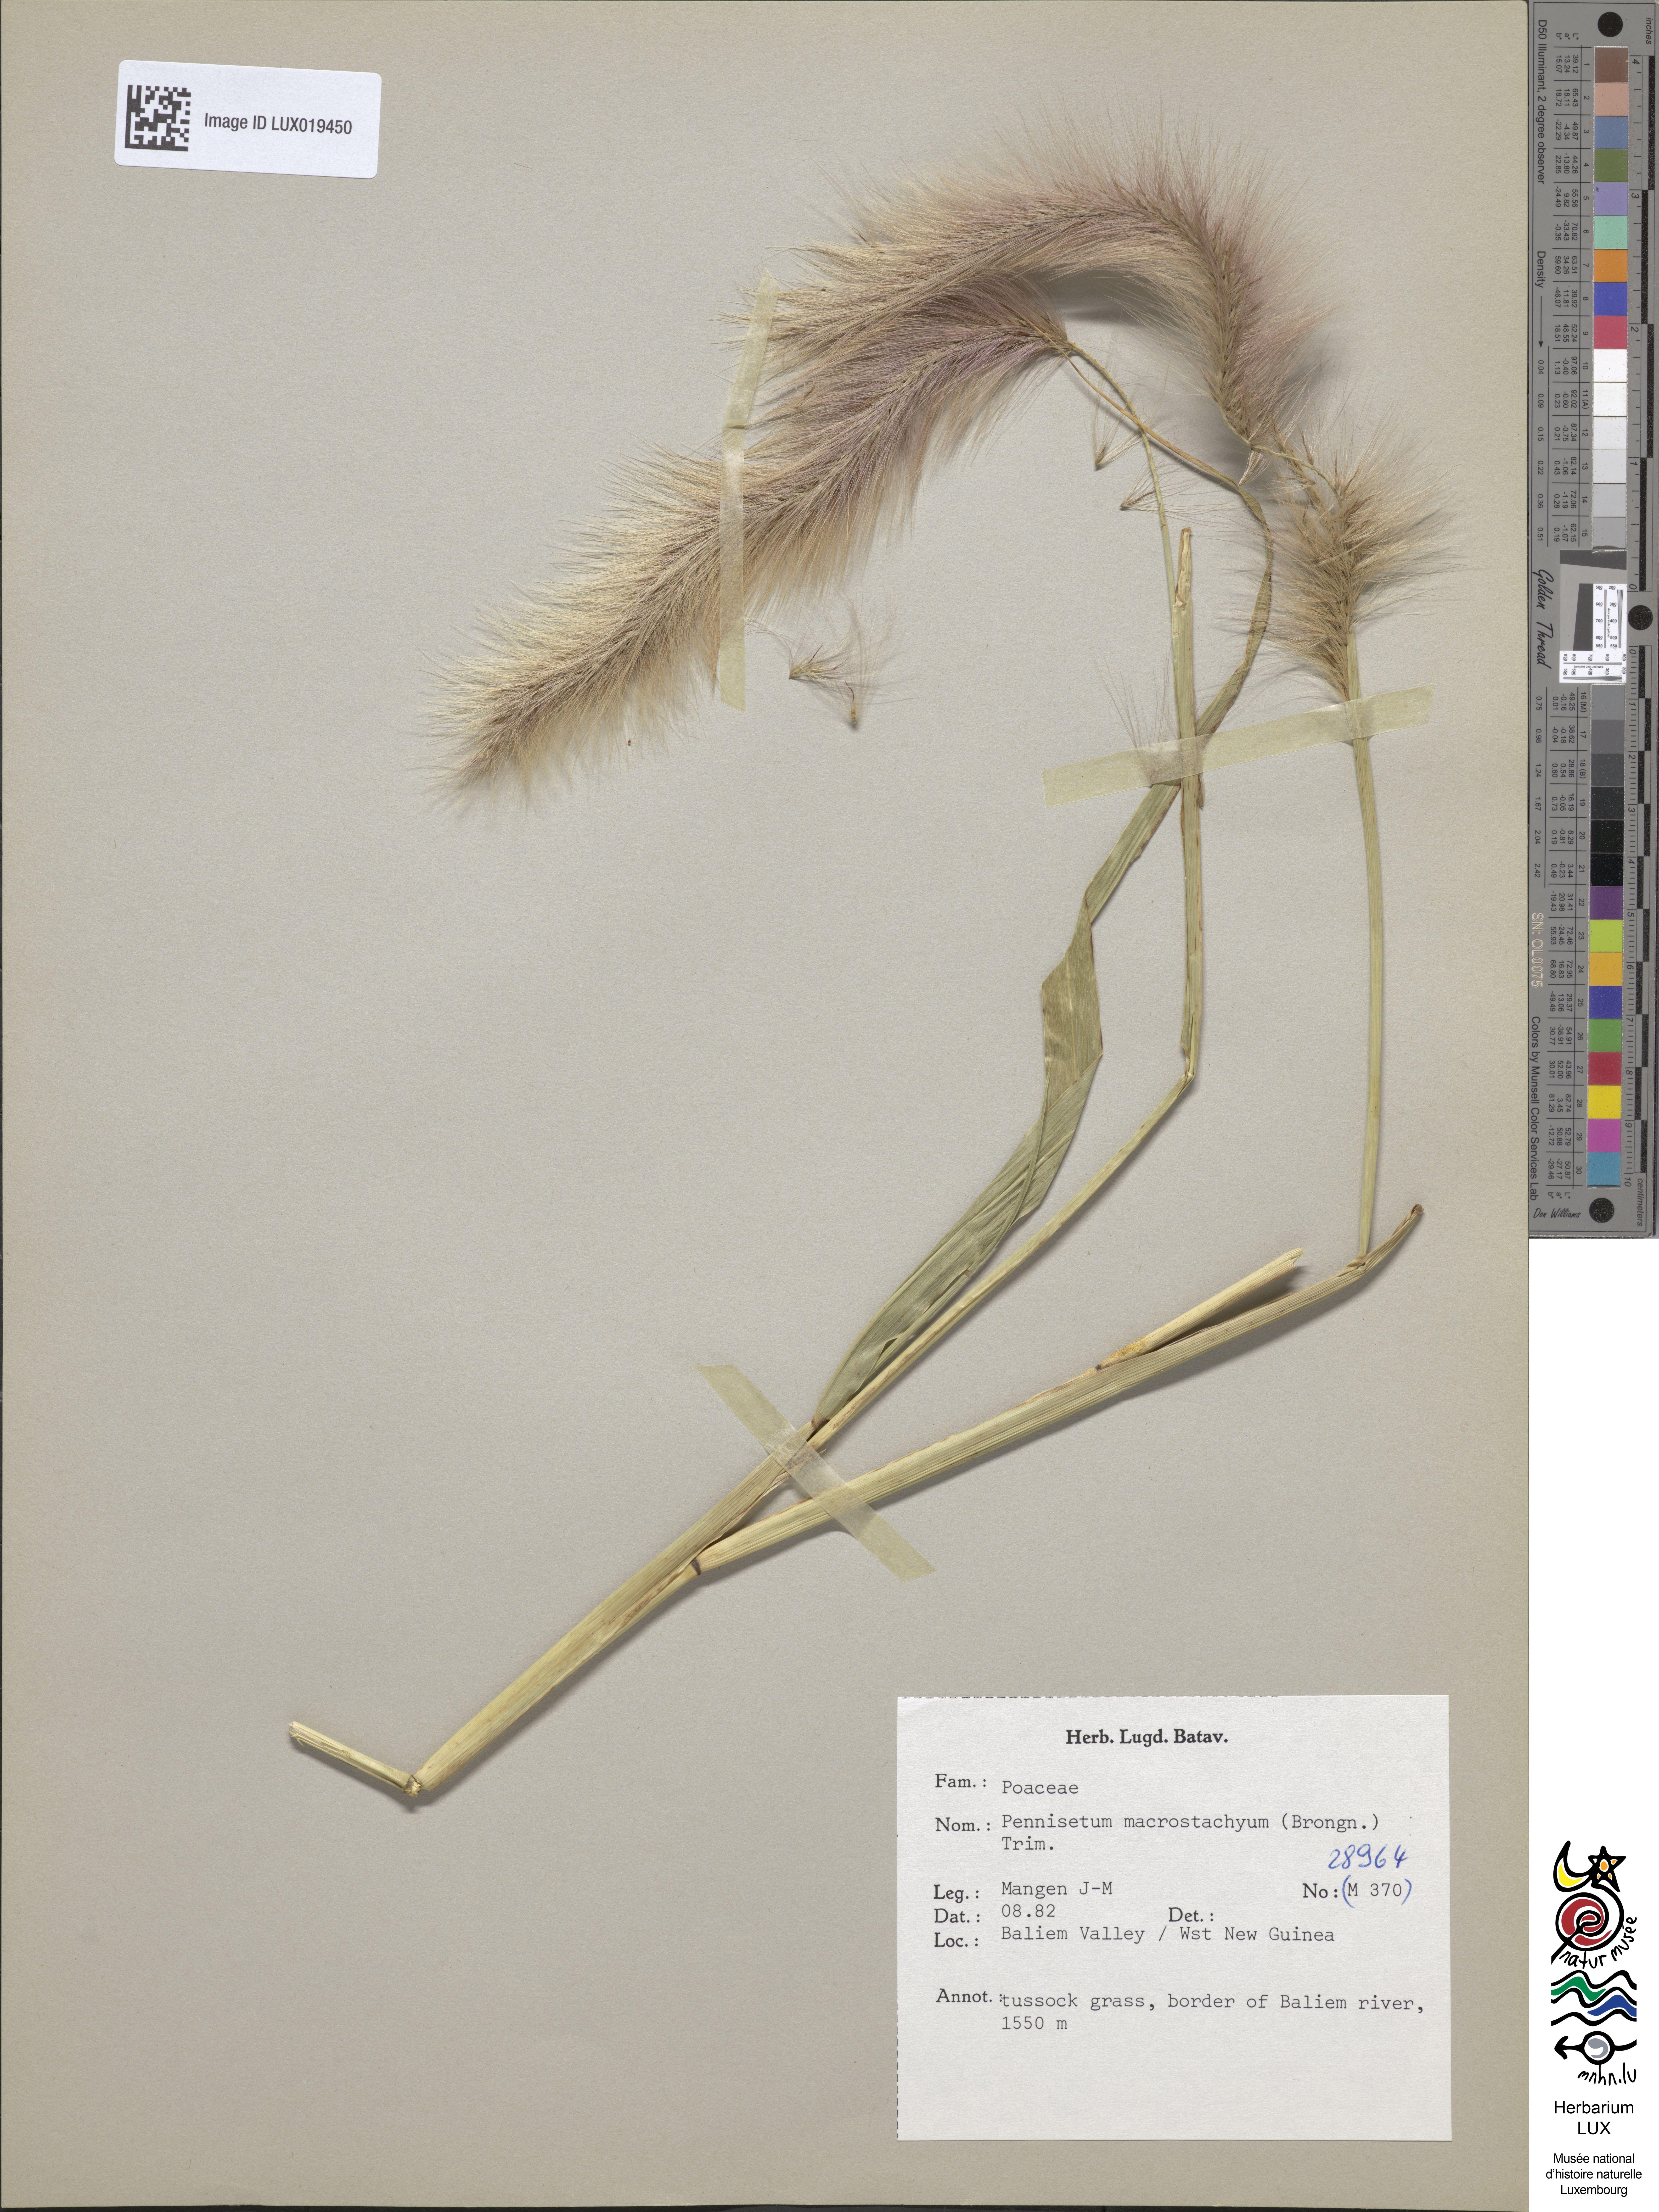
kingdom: Plantae
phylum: Tracheophyta
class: Liliopsida
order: Poales
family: Poaceae
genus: Cenchrus
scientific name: Cenchrus Pennisetum macrostachyum
